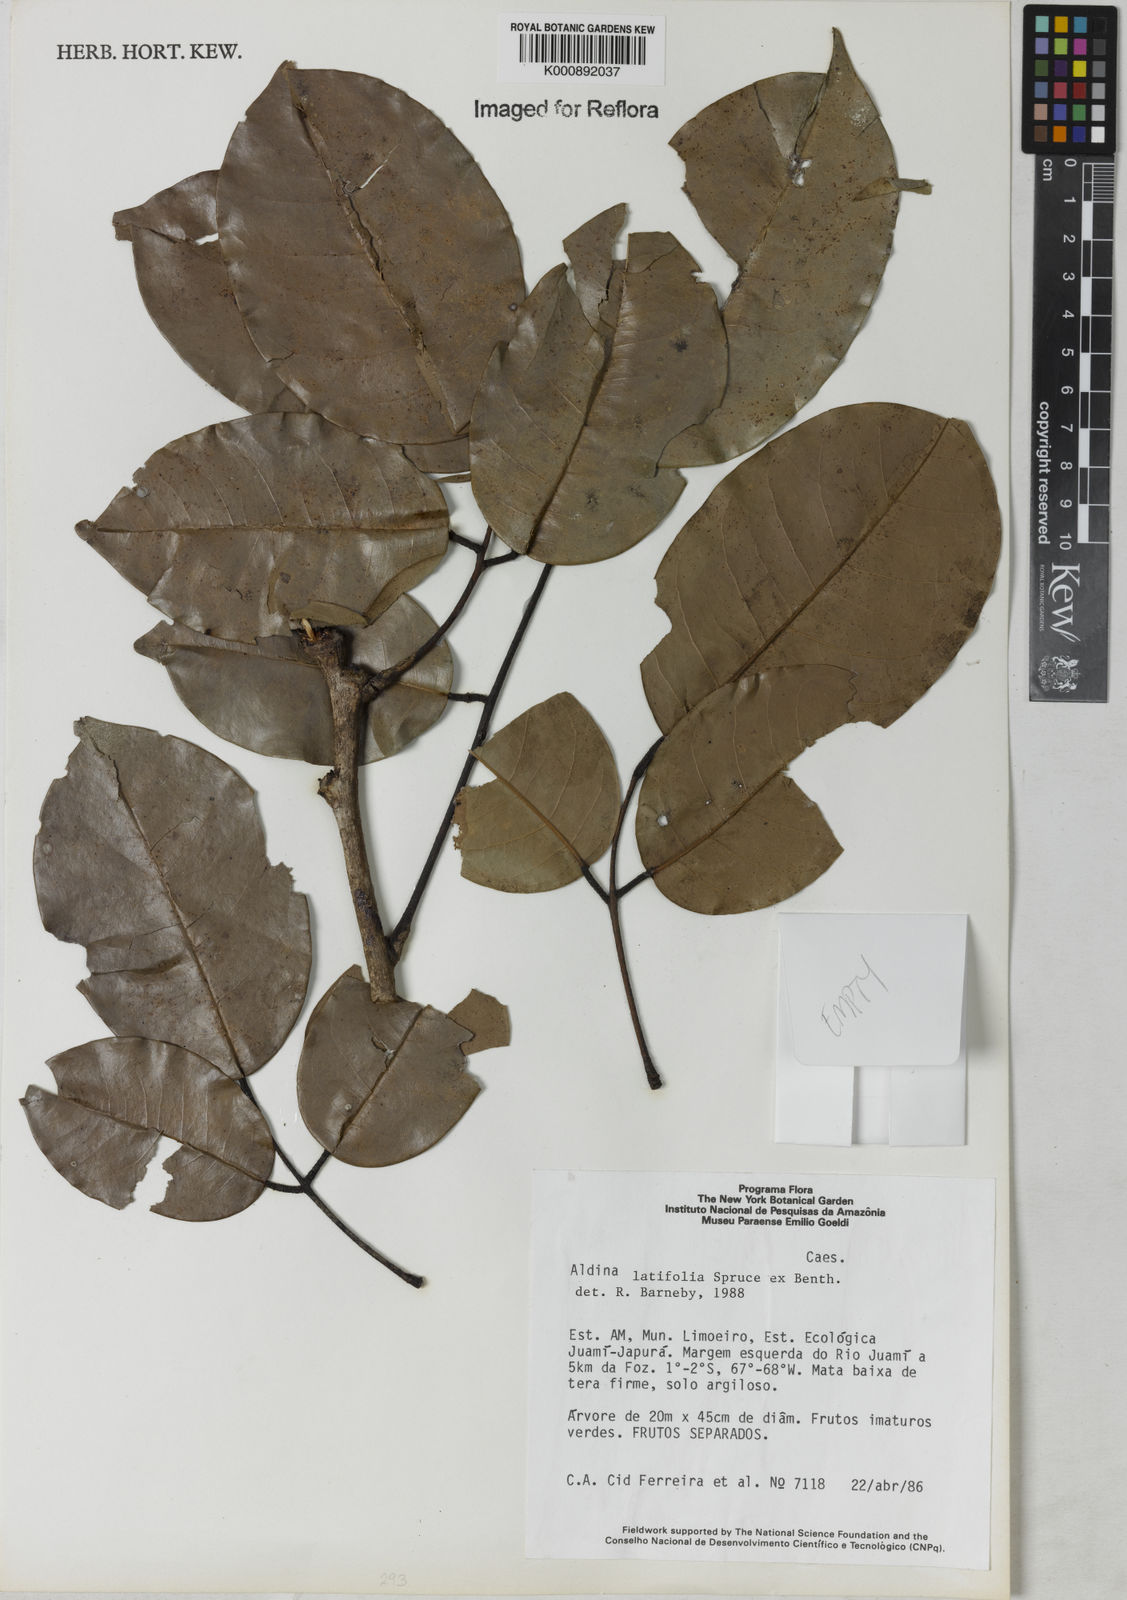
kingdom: Plantae
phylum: Tracheophyta
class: Magnoliopsida
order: Fabales
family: Fabaceae
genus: Aldina
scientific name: Aldina latifolia
